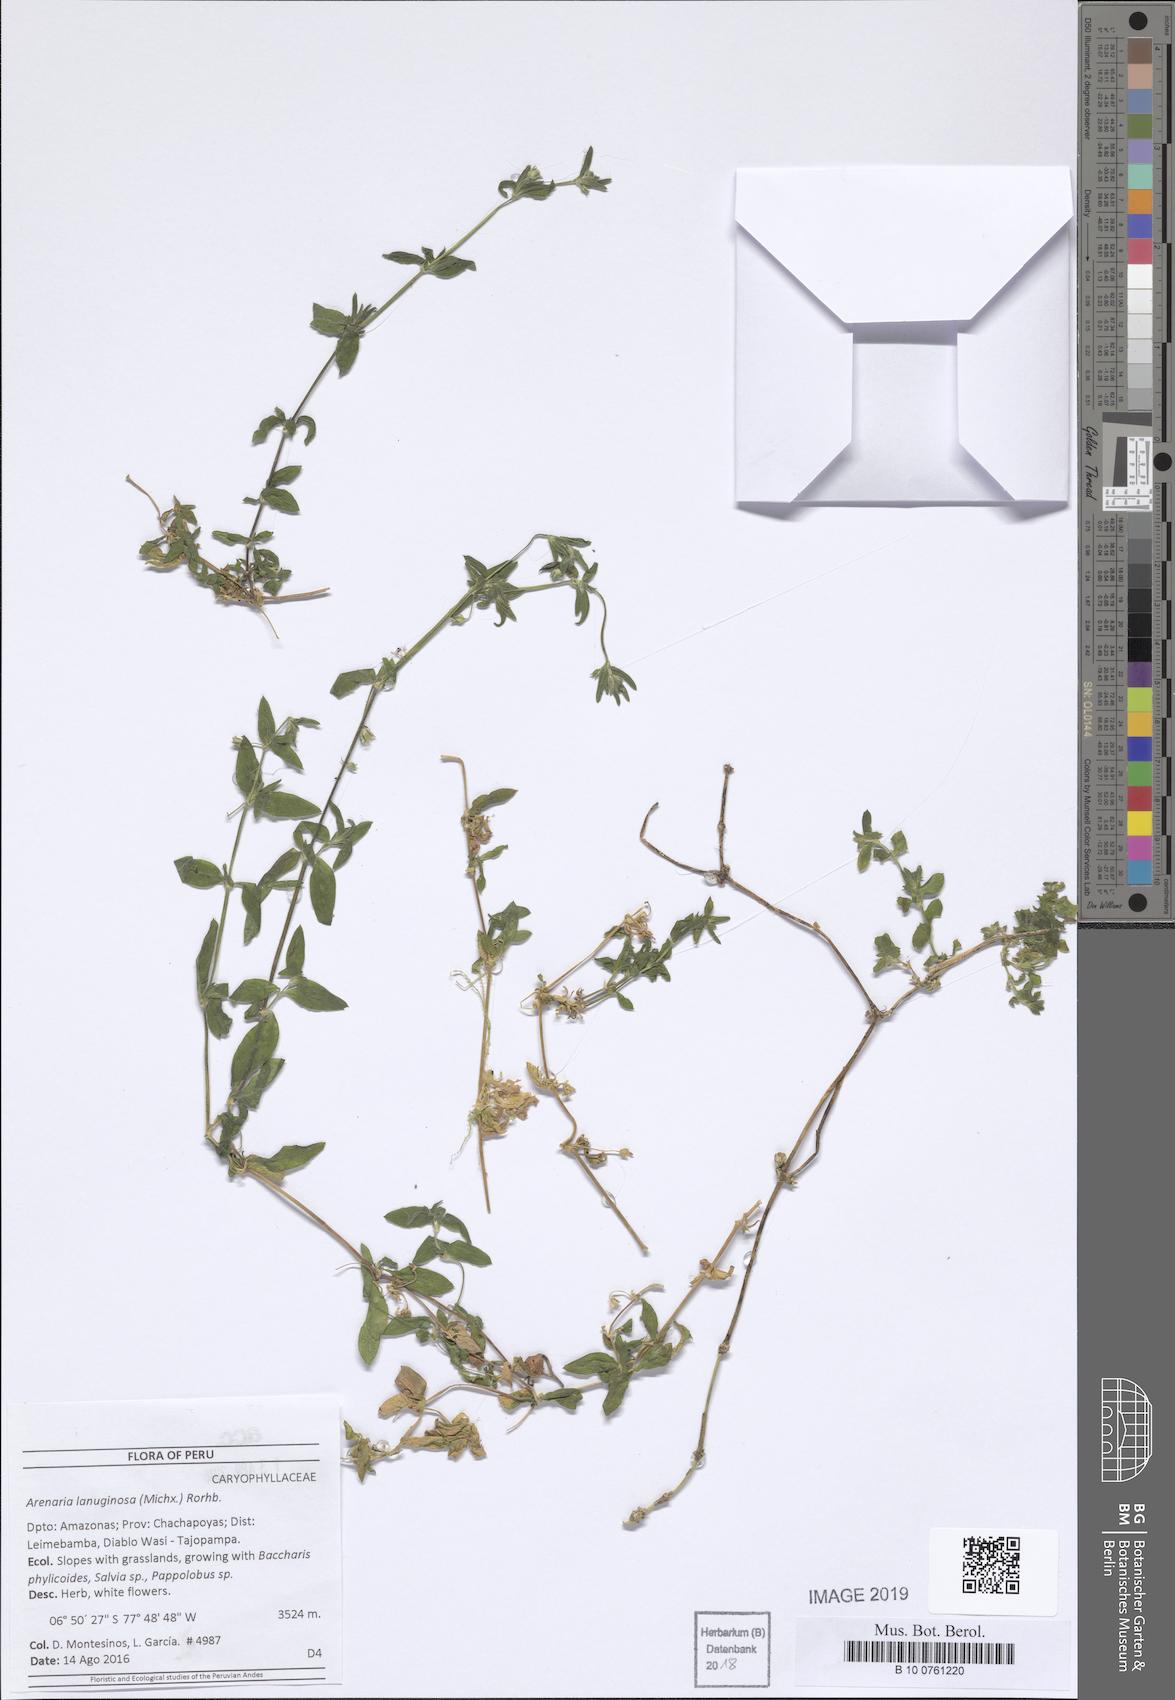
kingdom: Plantae
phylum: Tracheophyta
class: Magnoliopsida
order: Caryophyllales
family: Caryophyllaceae
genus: Arenaria
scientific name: Arenaria lanuginosa
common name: Spread sandwort
